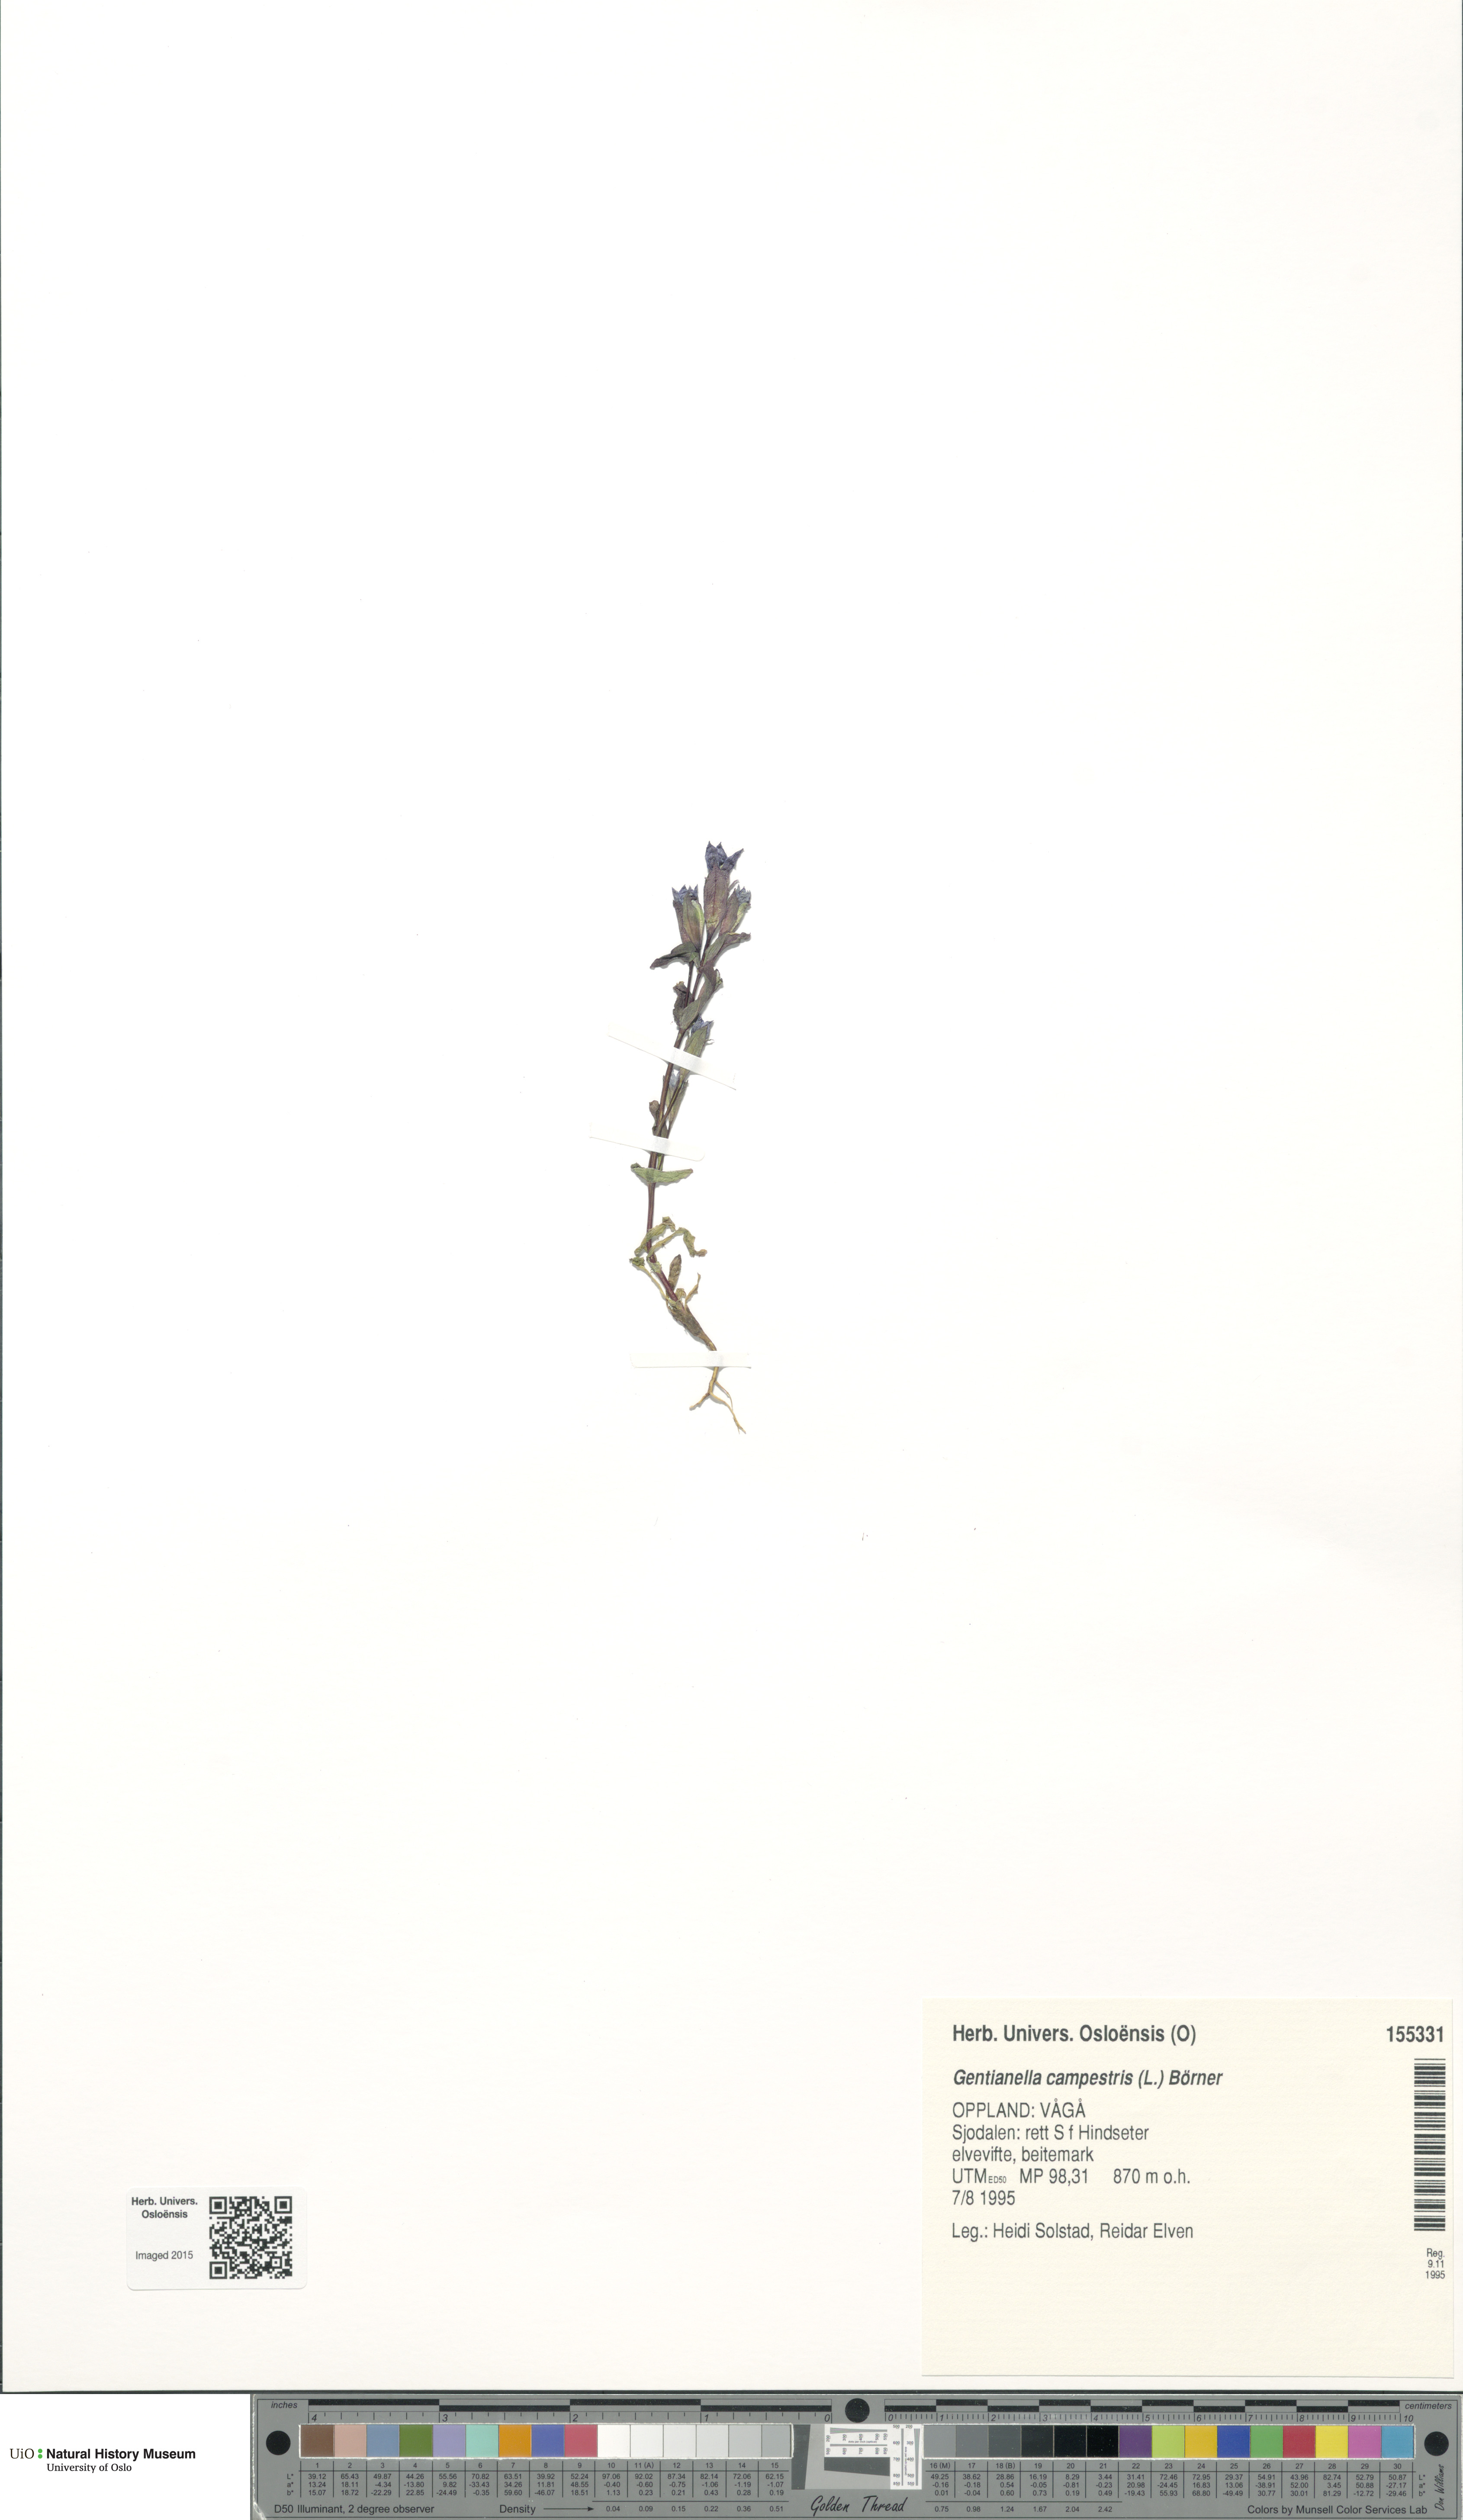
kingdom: Plantae
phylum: Tracheophyta
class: Magnoliopsida
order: Gentianales
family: Gentianaceae
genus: Gentianella
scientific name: Gentianella campestris
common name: Field gentian
